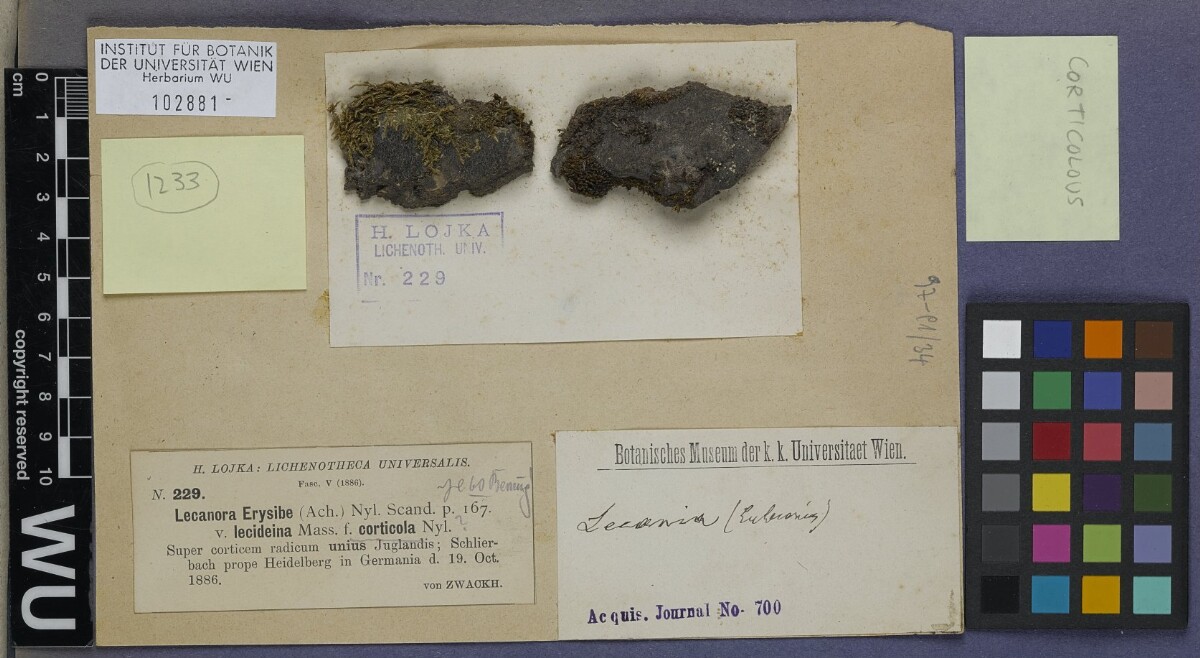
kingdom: Fungi
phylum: Ascomycota
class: Lecanoromycetes
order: Lecanorales
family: Ramalinaceae
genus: Lecania
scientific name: Lecania erysibe
